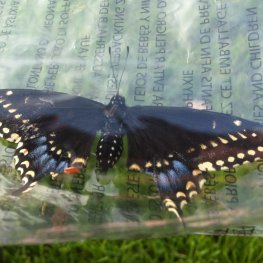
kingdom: Animalia
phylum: Arthropoda
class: Insecta
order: Lepidoptera
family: Papilionidae
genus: Papilio
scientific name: Papilio polyxenes
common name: Black Swallowtail
